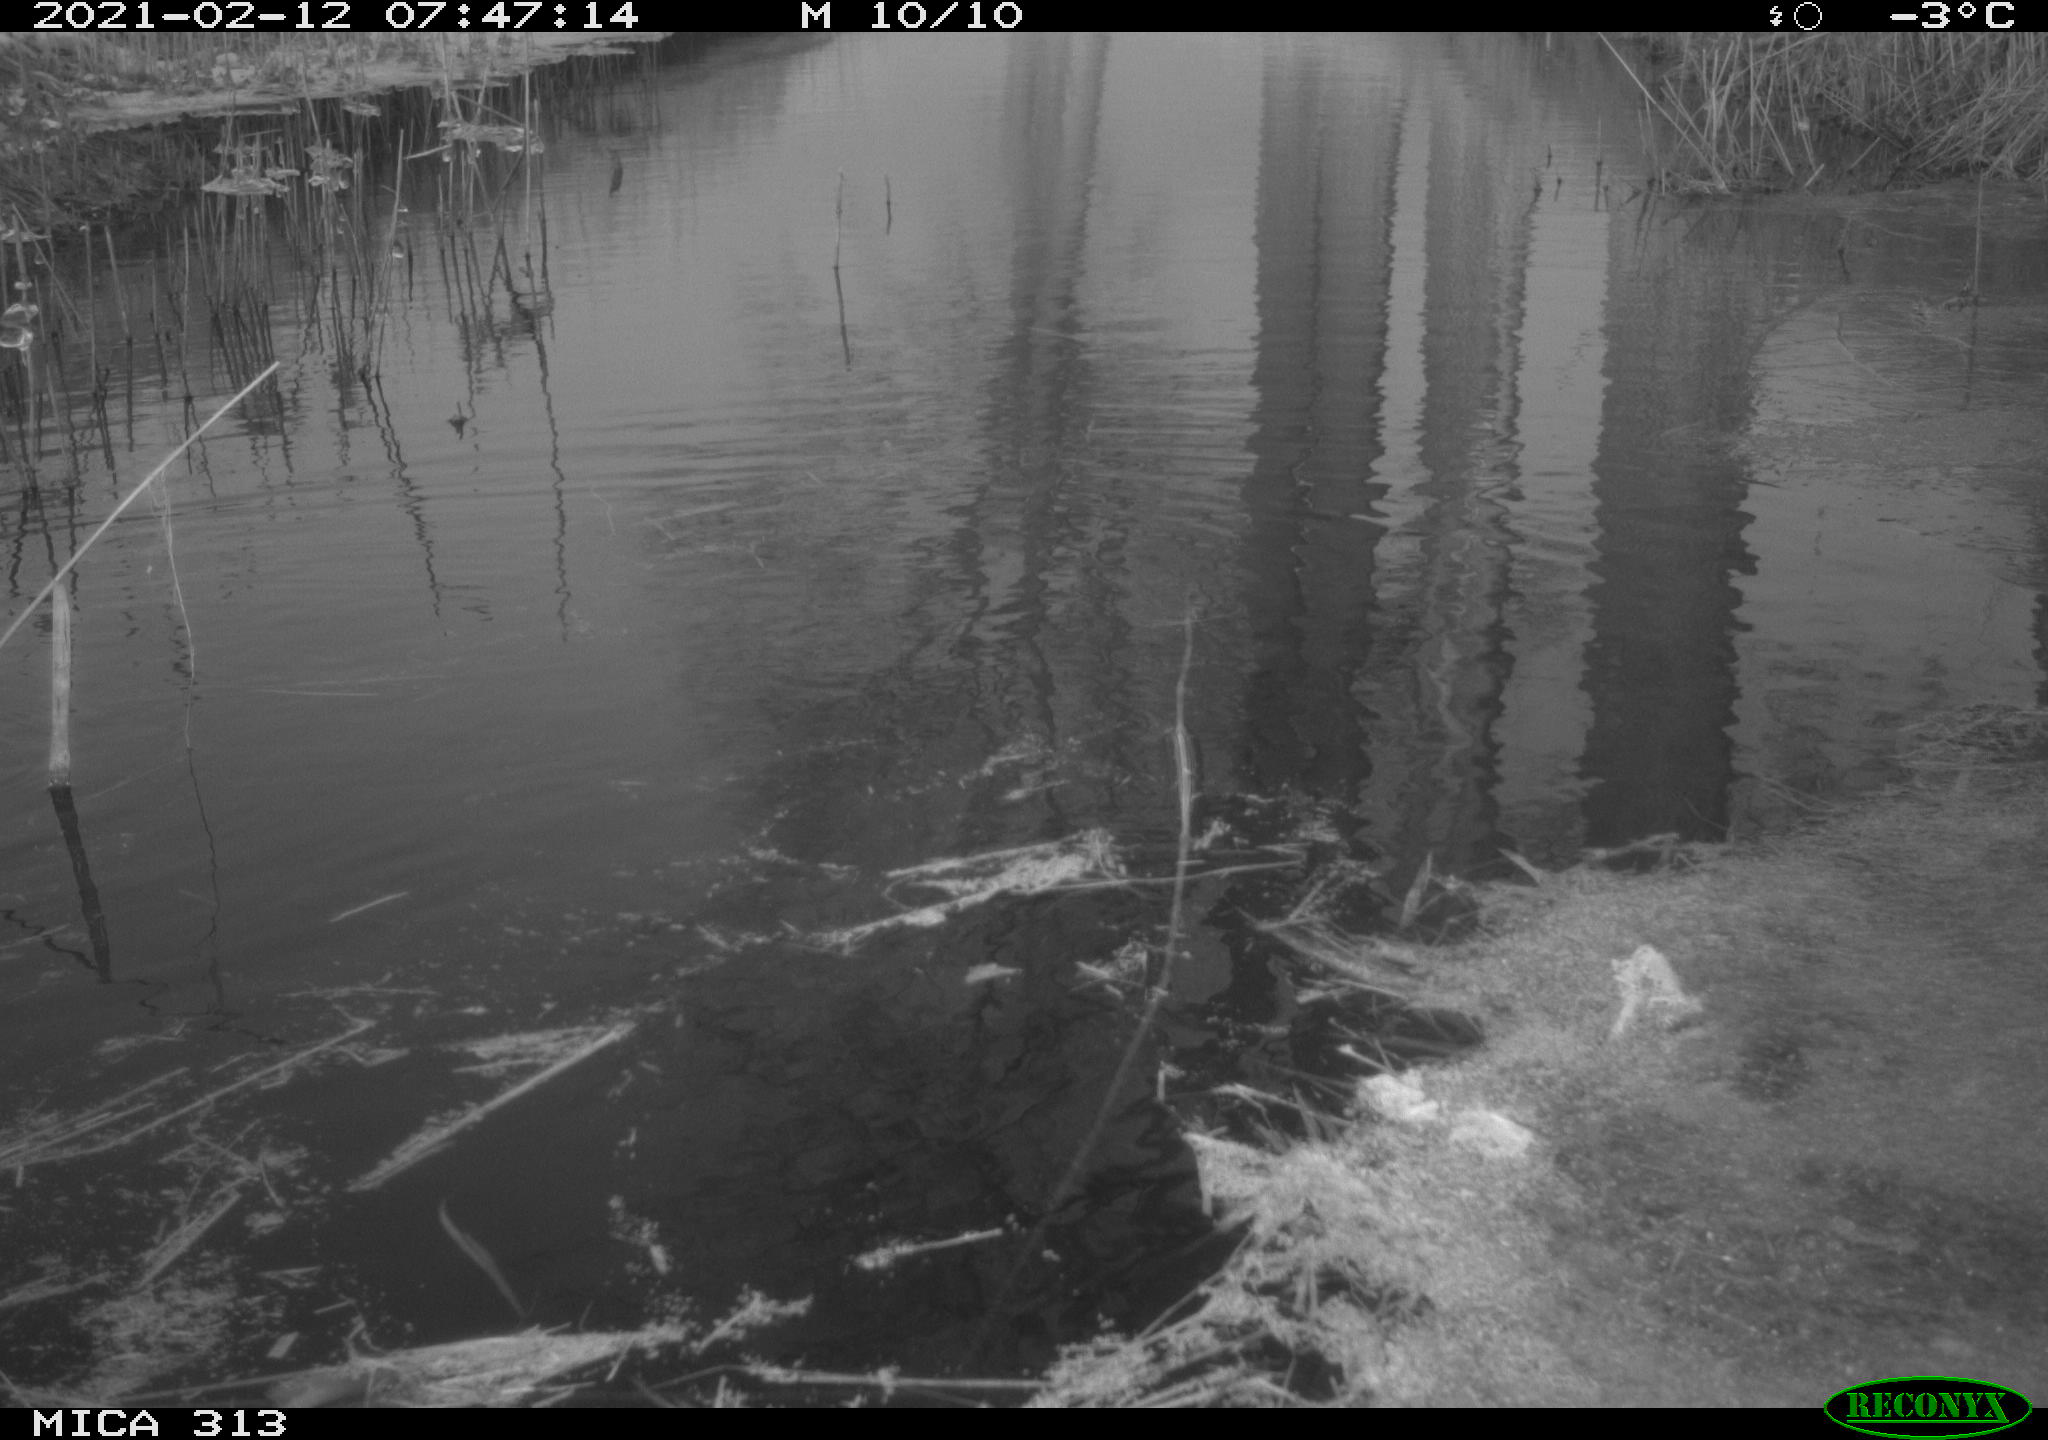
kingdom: Animalia
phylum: Chordata
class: Aves
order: Gruiformes
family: Rallidae
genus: Gallinula
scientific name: Gallinula chloropus
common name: Common moorhen
